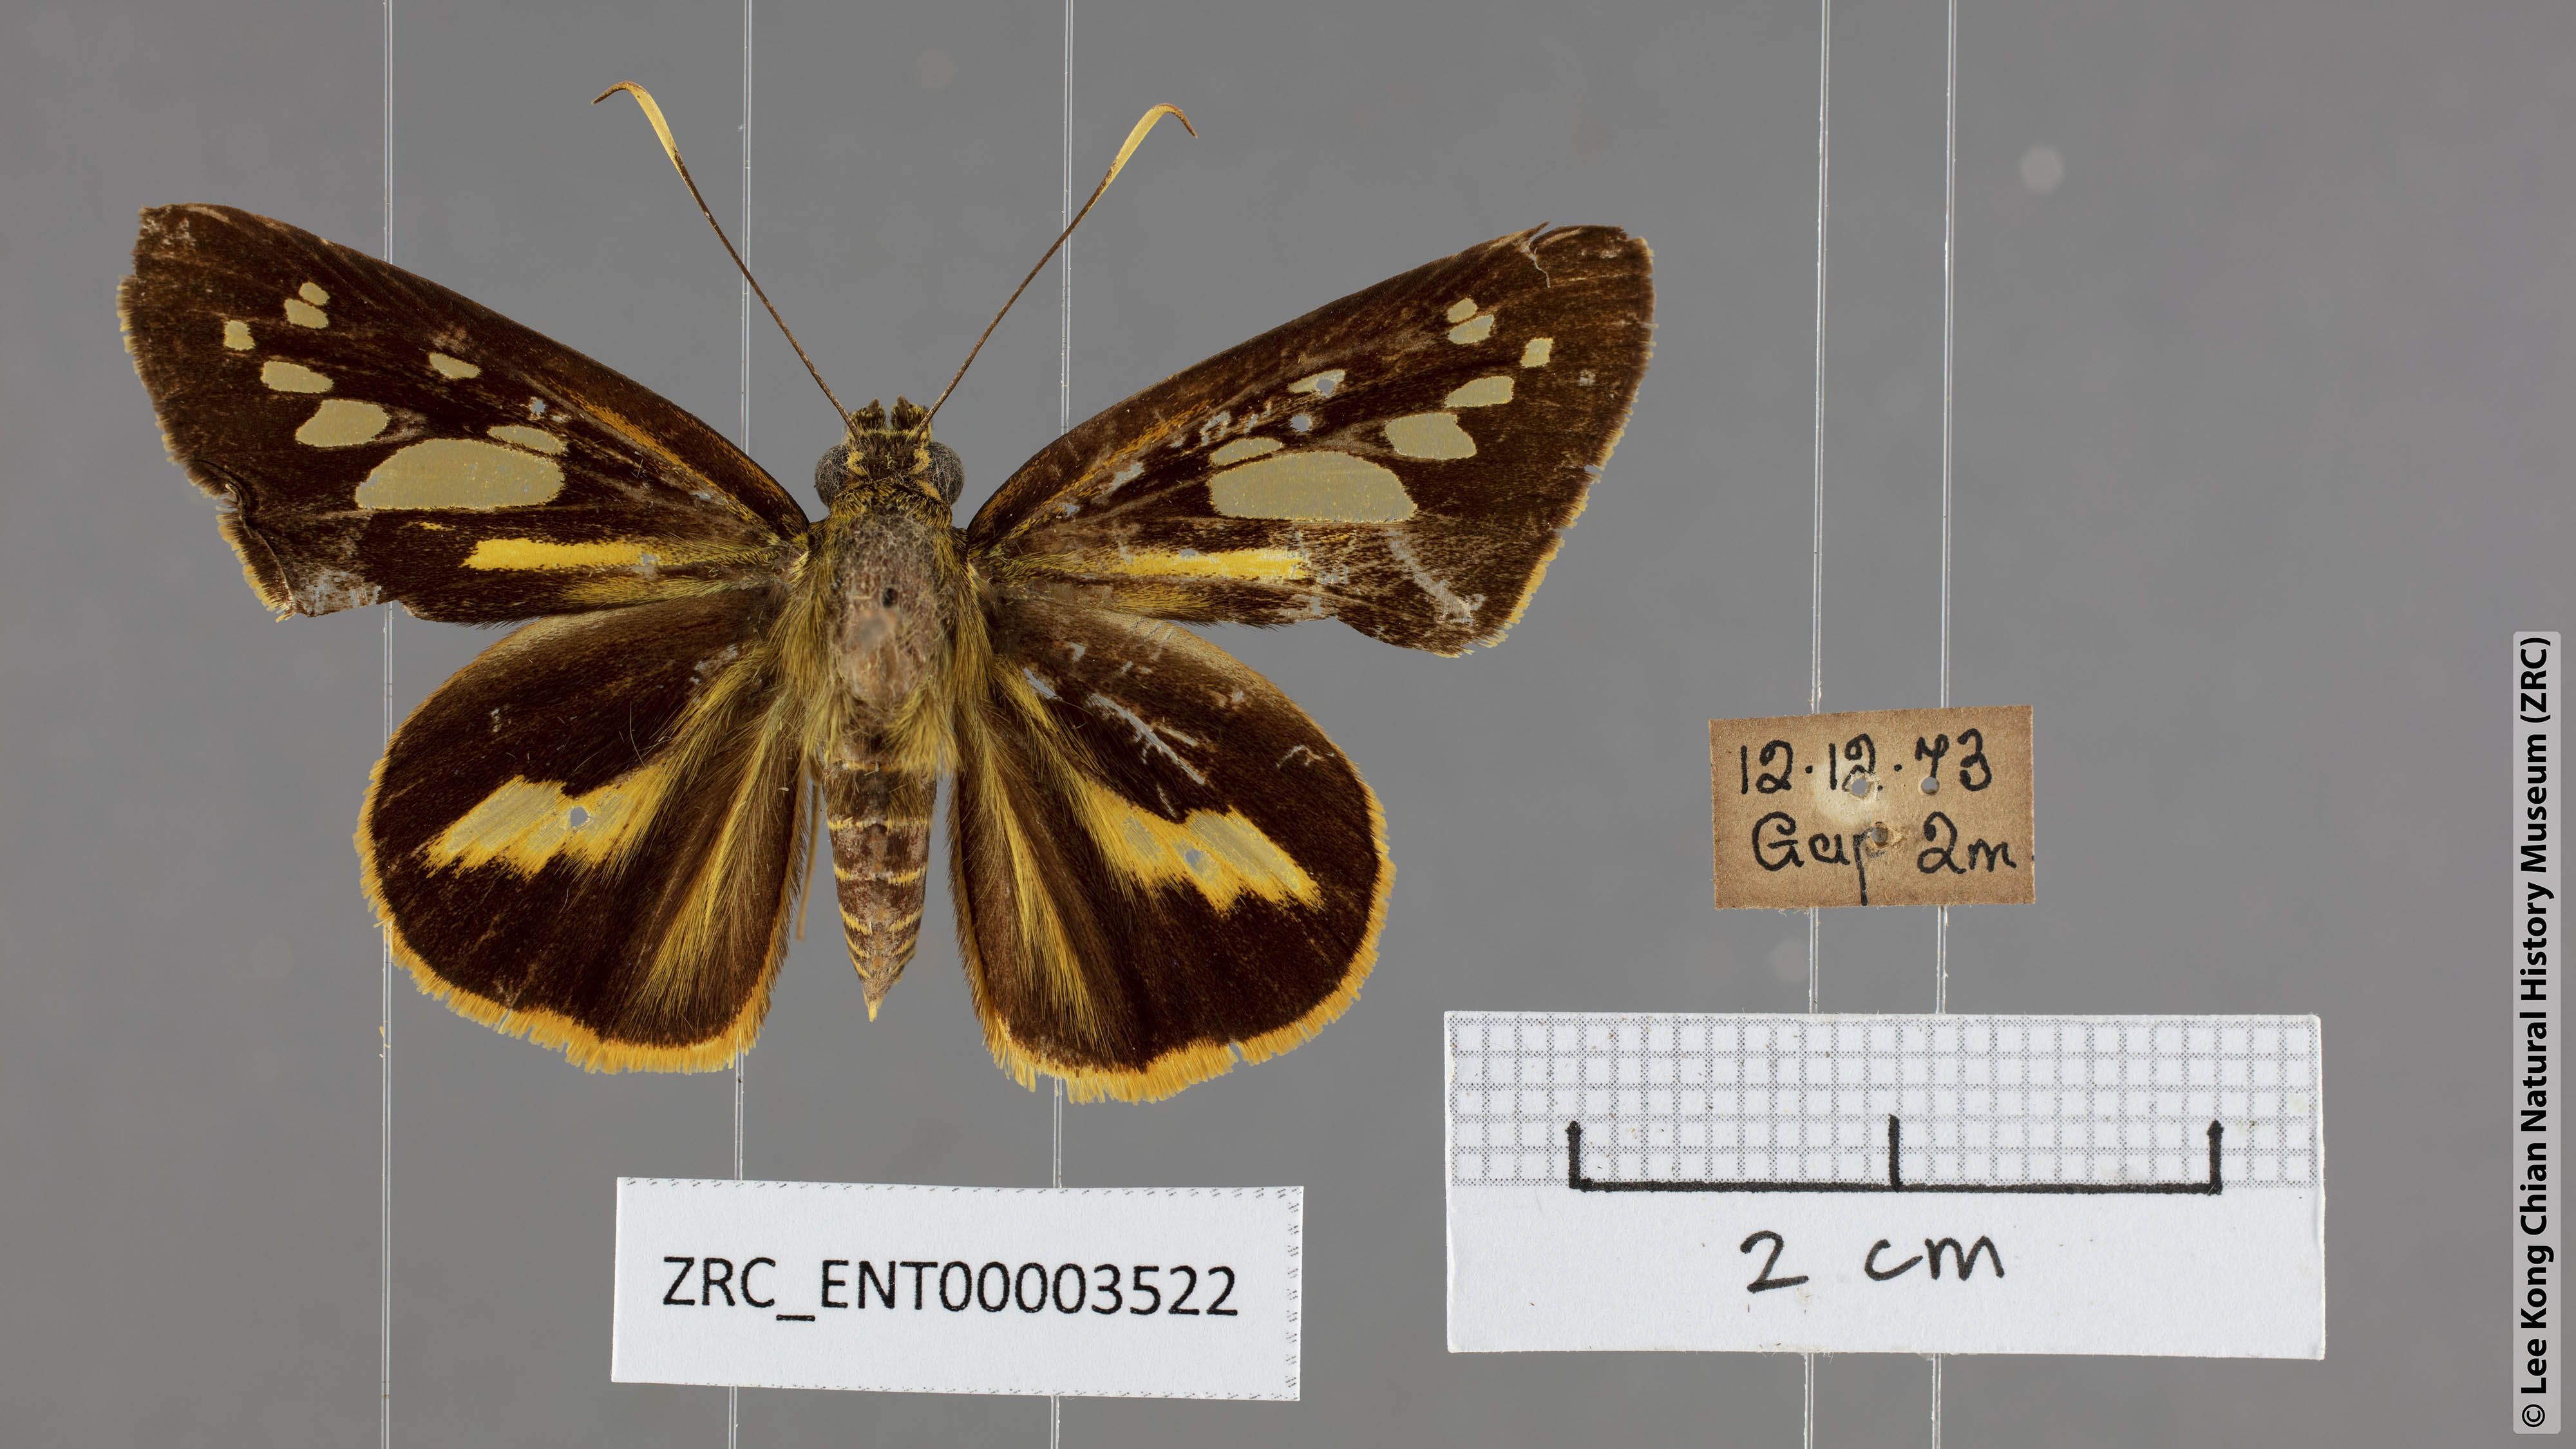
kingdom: Animalia
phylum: Arthropoda
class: Insecta
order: Lepidoptera
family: Hesperiidae
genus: Pyroneura
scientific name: Pyroneura
